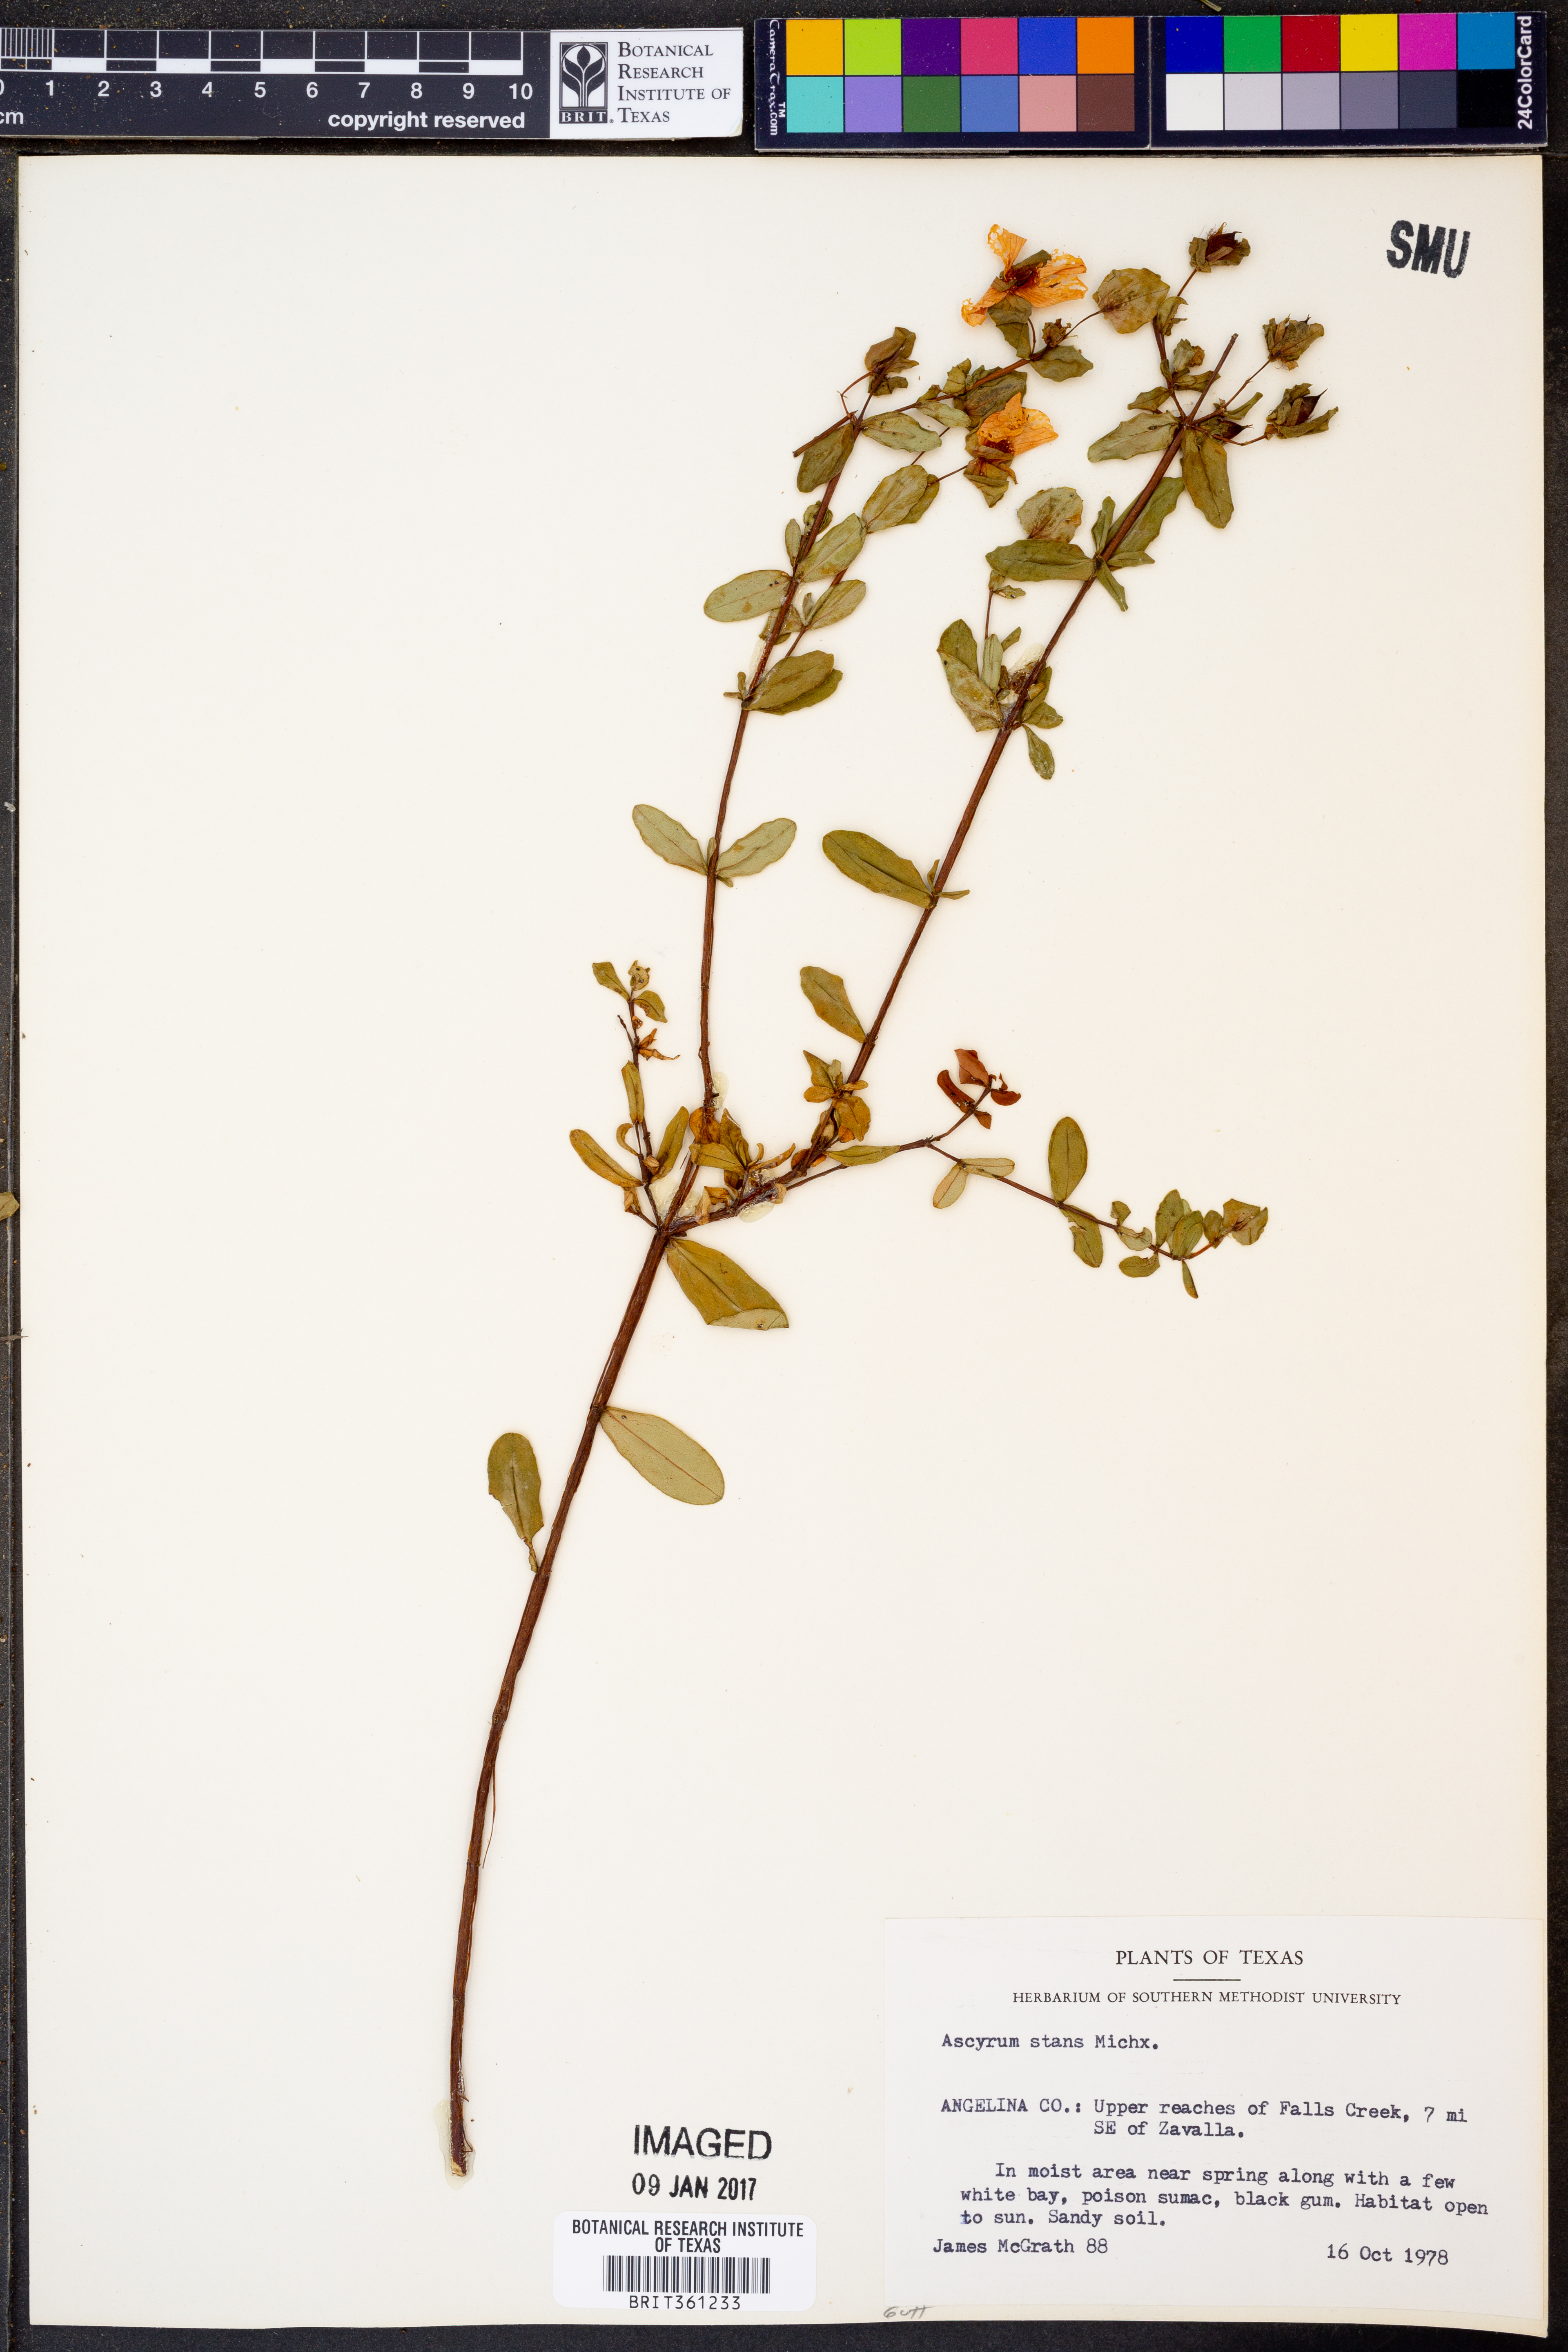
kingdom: Plantae
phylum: Tracheophyta
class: Magnoliopsida
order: Malpighiales
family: Hypericaceae
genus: Hypericum
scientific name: Hypericum crux-andreae
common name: St.-peter's-wort
